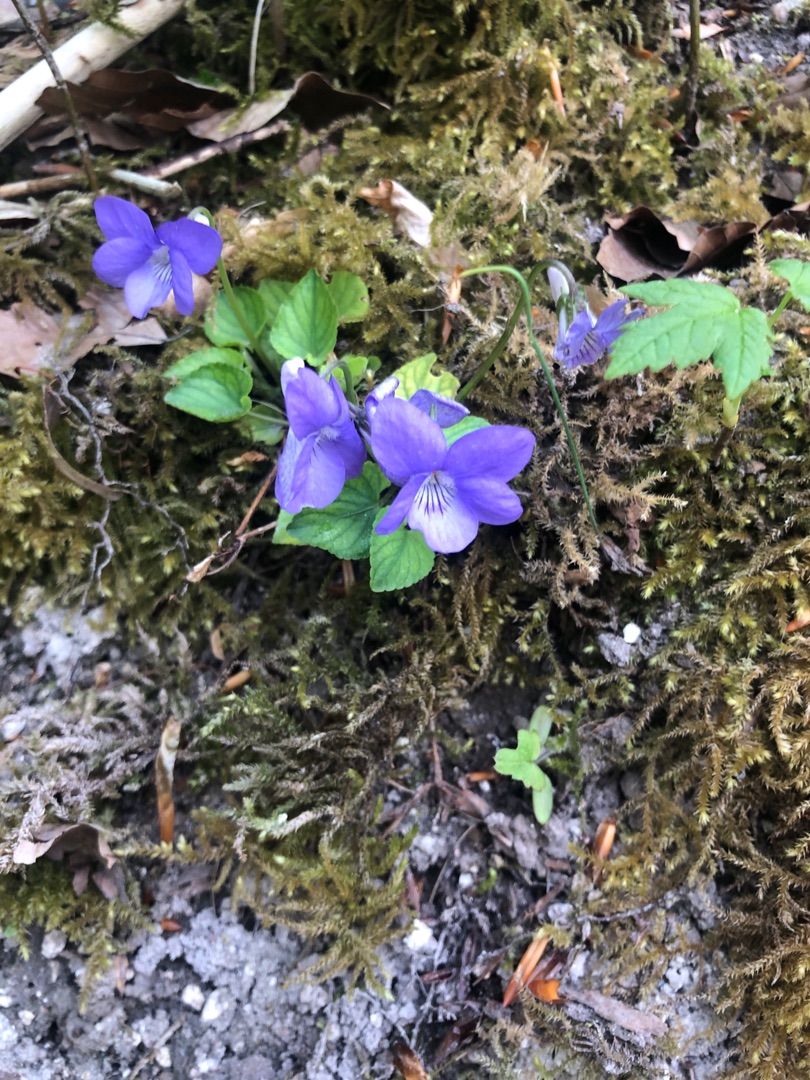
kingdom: Plantae
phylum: Tracheophyta
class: Magnoliopsida
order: Malpighiales
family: Violaceae
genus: Viola
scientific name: Viola riviniana
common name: Krat-viol
